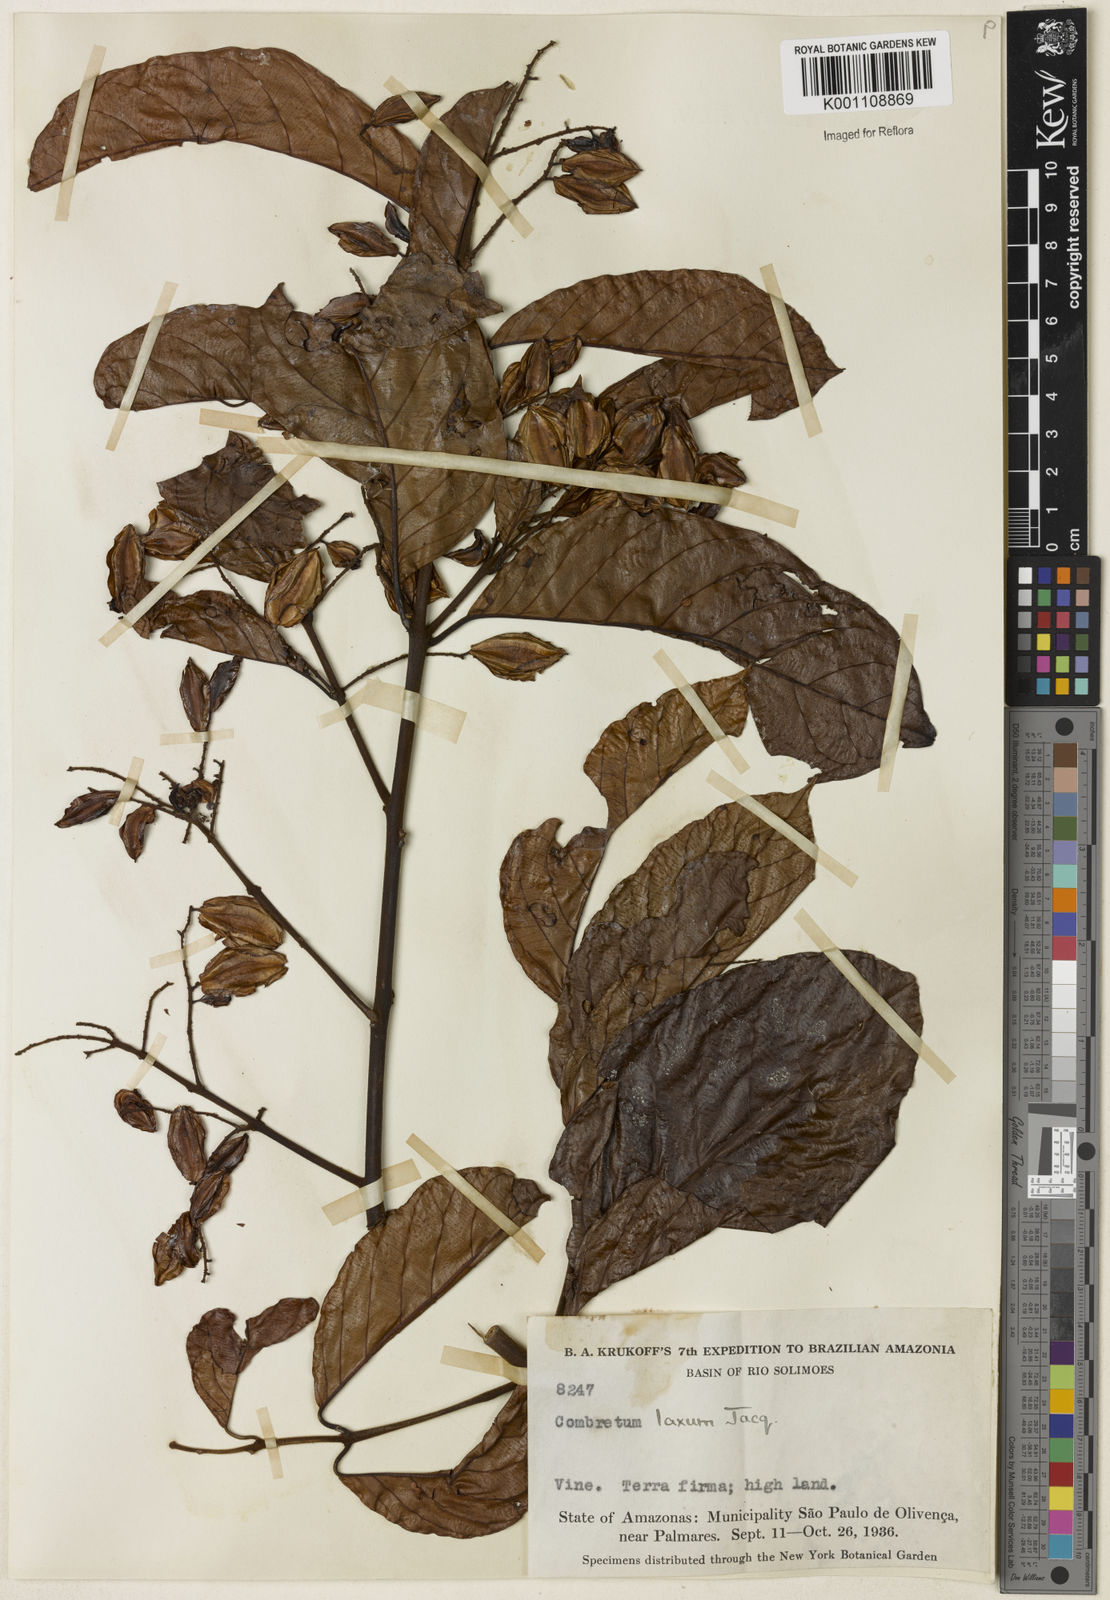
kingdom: Plantae
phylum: Tracheophyta
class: Magnoliopsida
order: Myrtales
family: Combretaceae
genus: Combretum
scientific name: Combretum laxum
